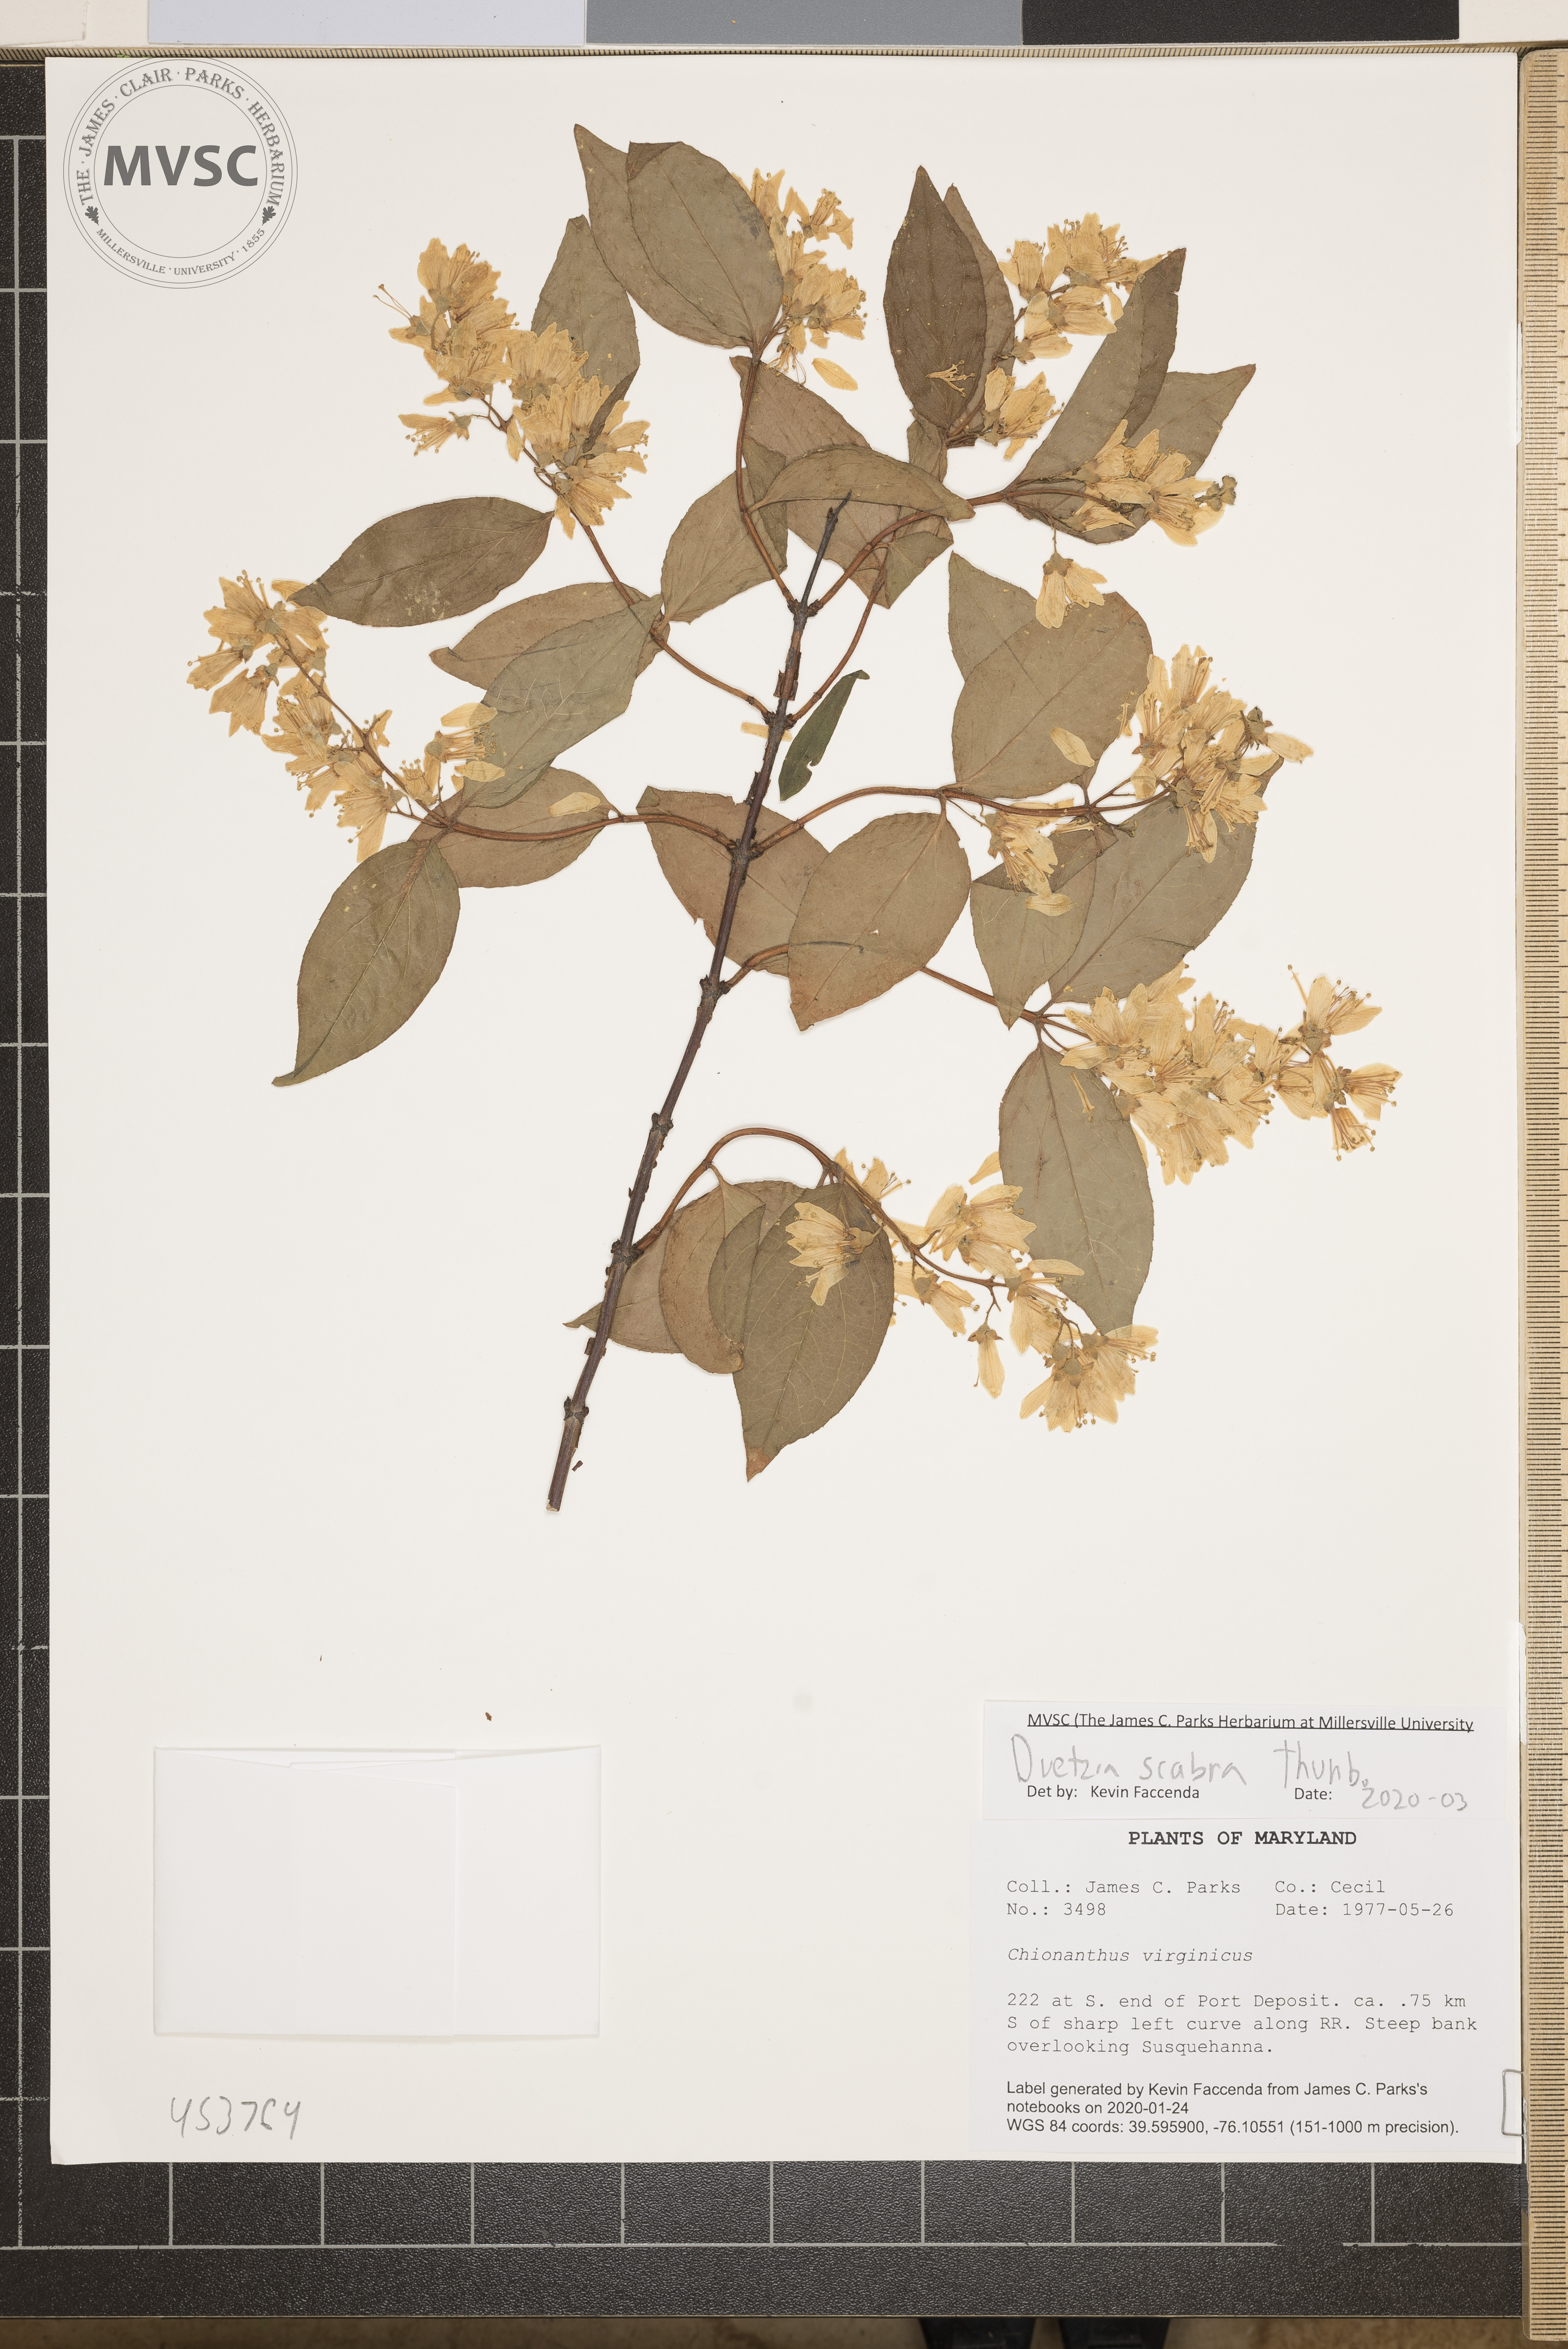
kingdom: Plantae
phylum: Tracheophyta
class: Magnoliopsida
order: Cornales
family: Hydrangeaceae
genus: Deutzia
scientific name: Deutzia scabra
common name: Deutzia
